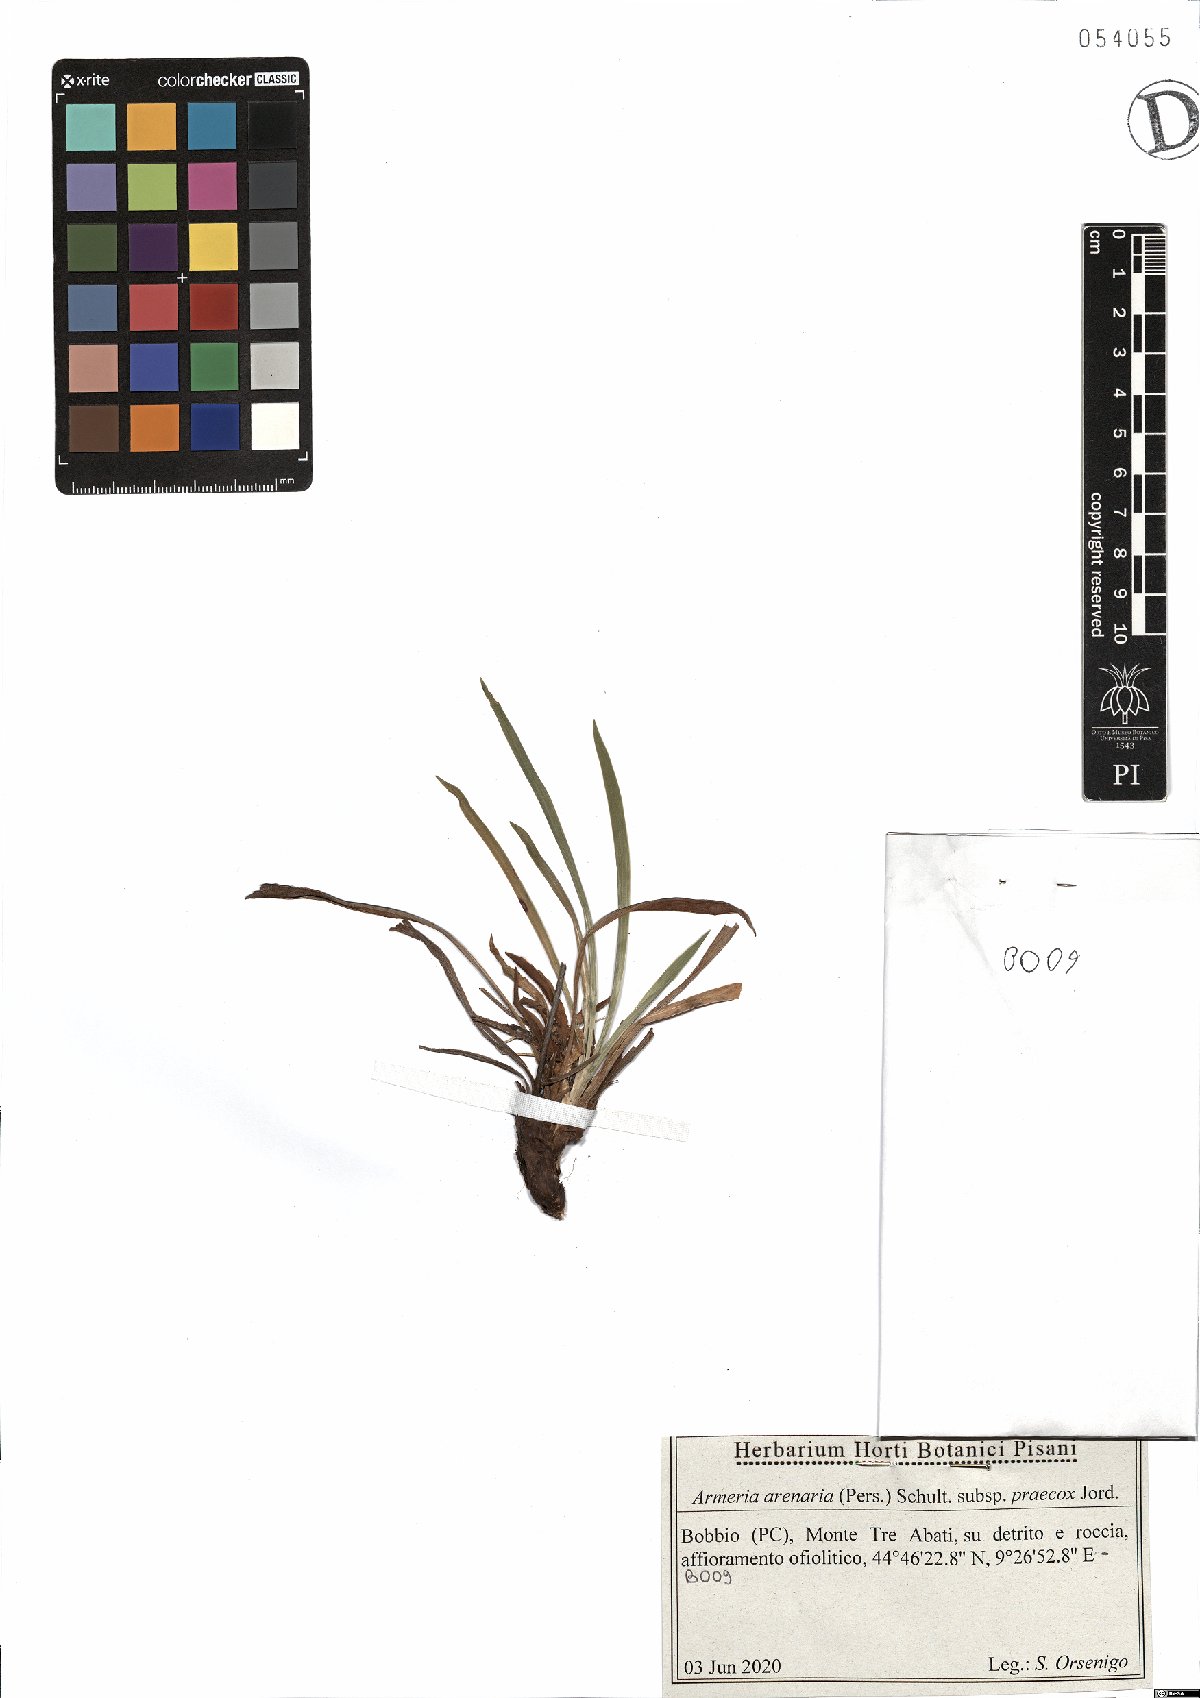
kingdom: Plantae
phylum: Tracheophyta
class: Magnoliopsida
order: Caryophyllales
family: Plumbaginaceae
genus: Armeria
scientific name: Armeria arenaria
